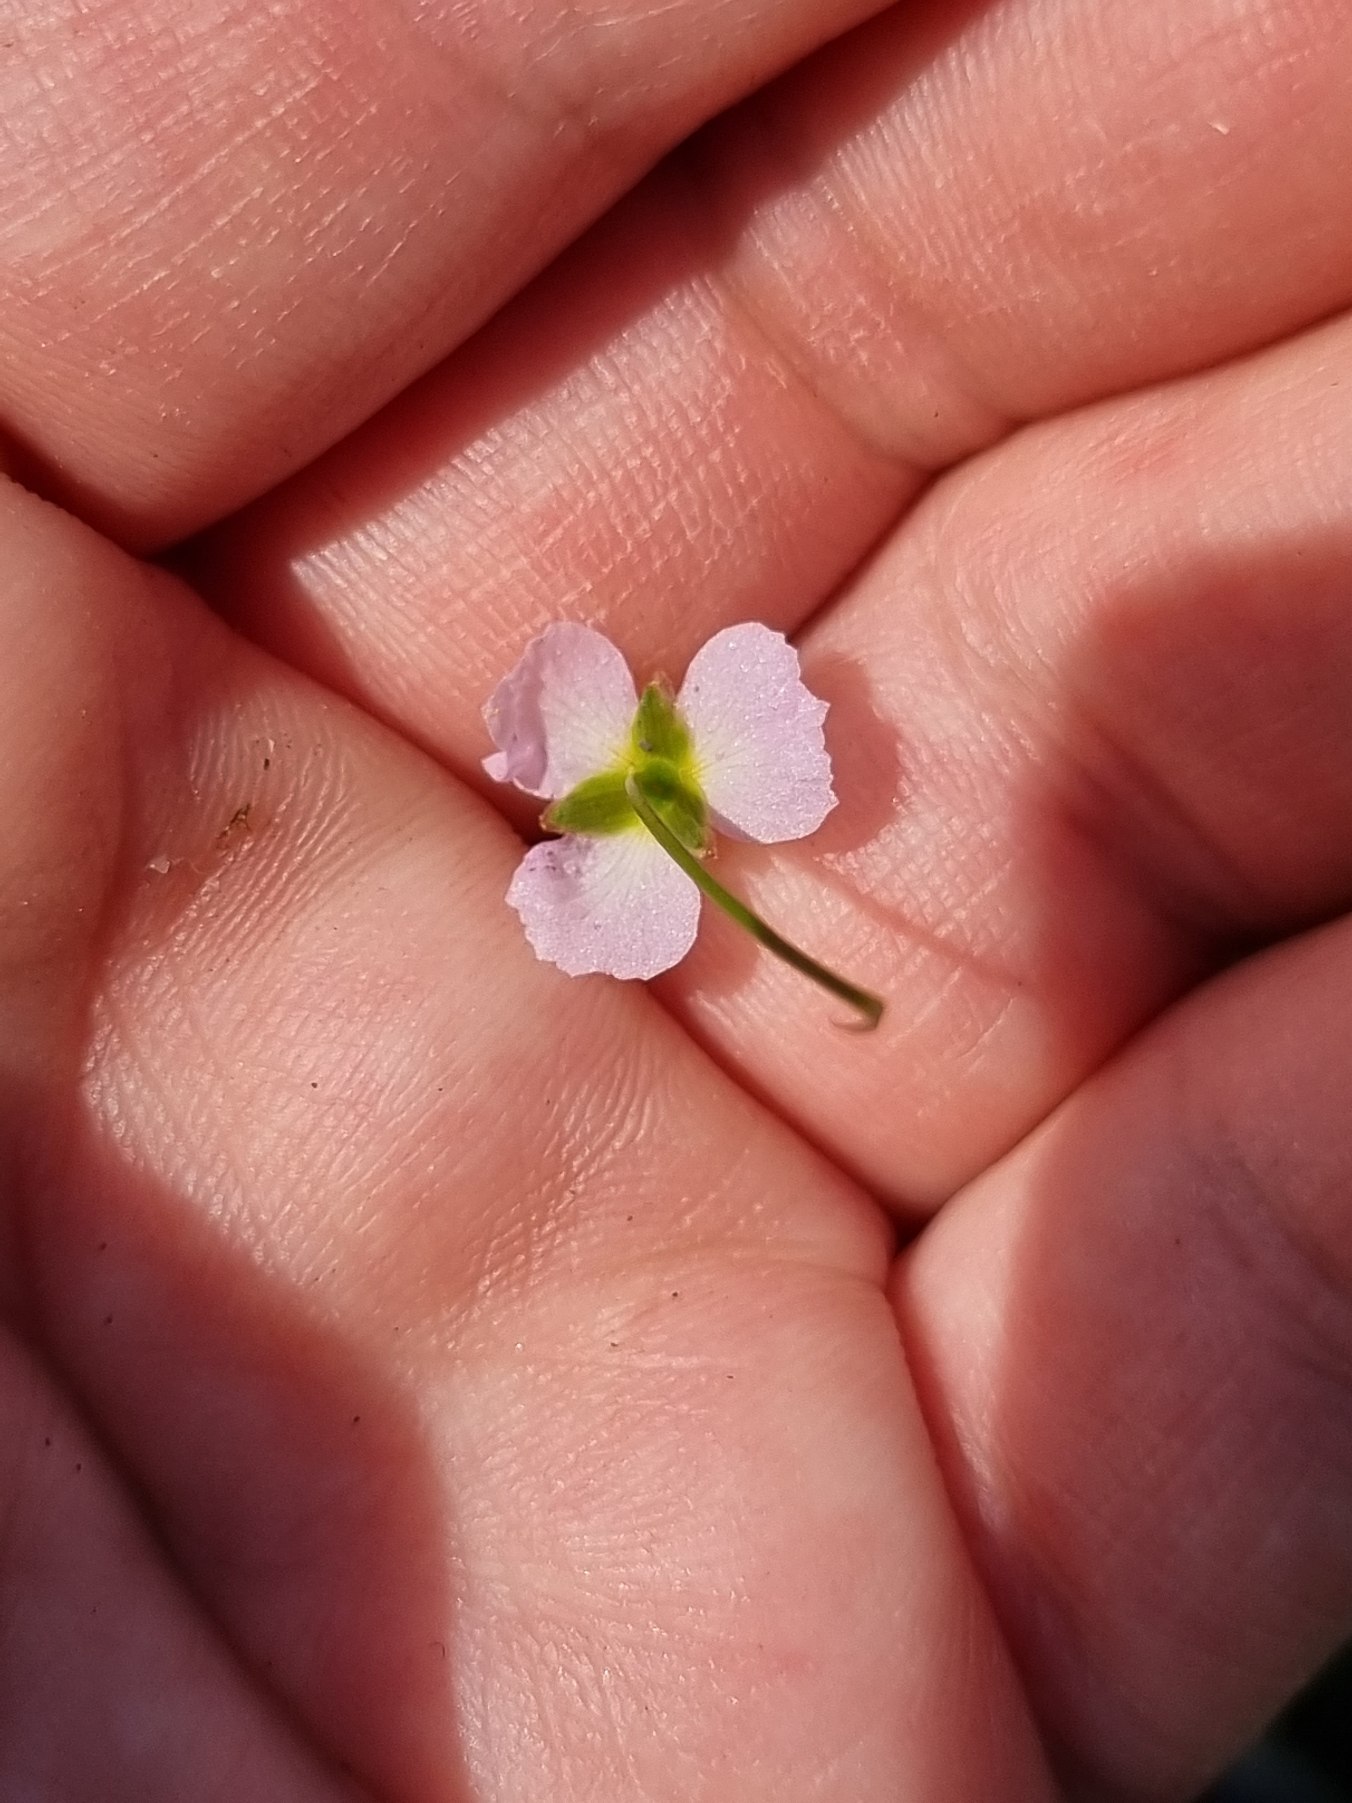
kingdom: Plantae
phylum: Tracheophyta
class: Liliopsida
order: Alismatales
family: Alismataceae
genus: Alisma
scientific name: Alisma plantago-aquatica
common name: Vejbred-skeblad
